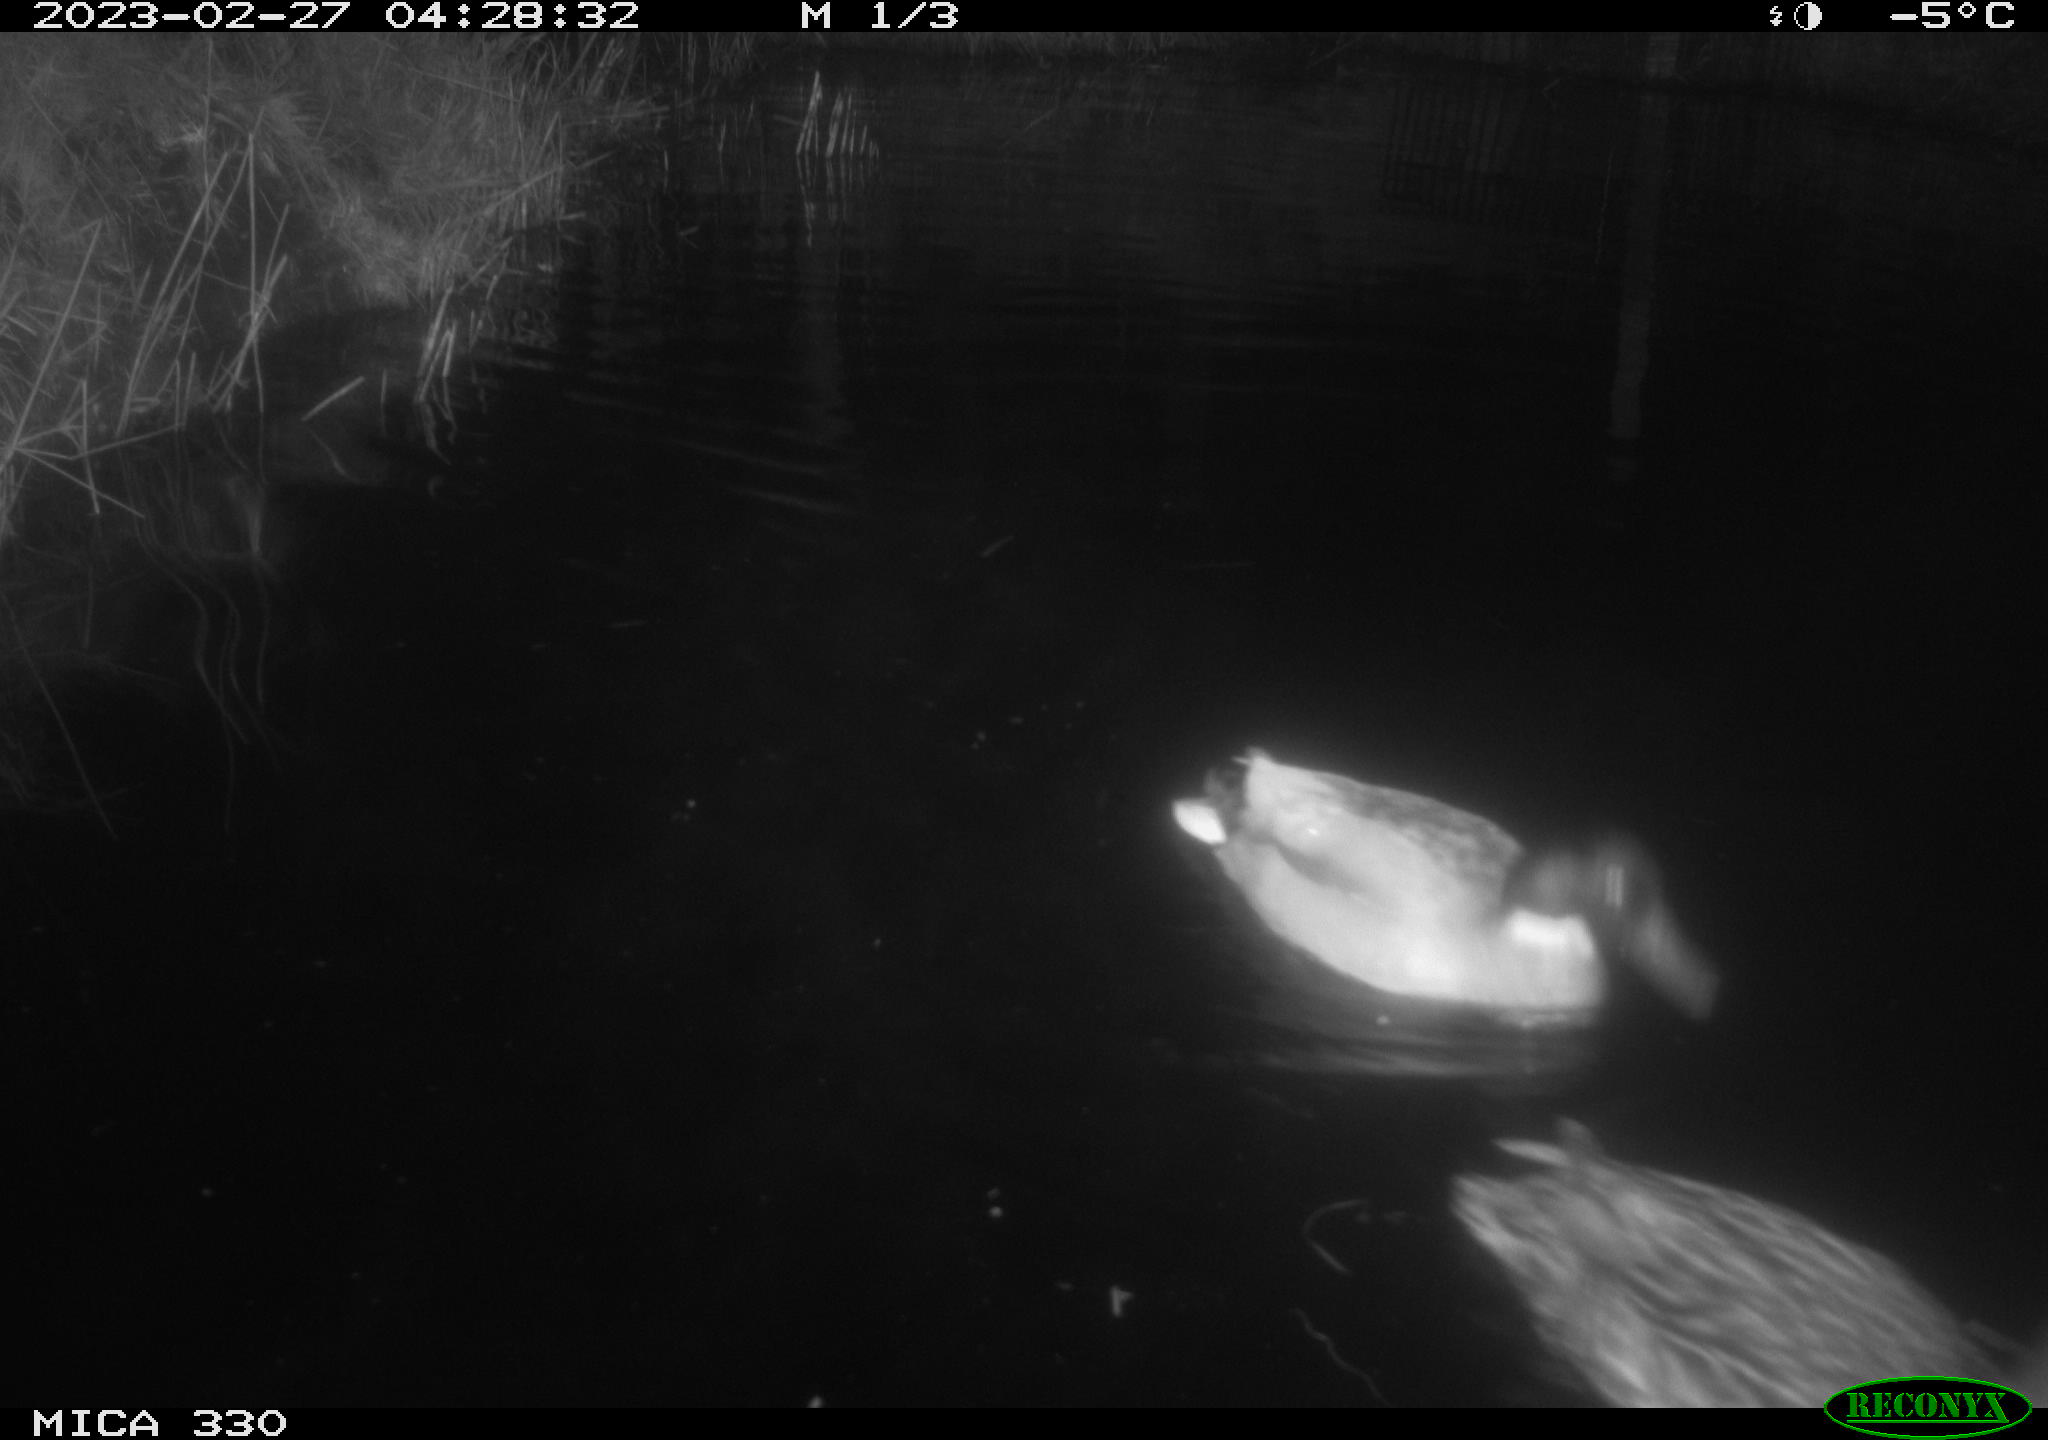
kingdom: Animalia
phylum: Chordata
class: Aves
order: Anseriformes
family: Anatidae
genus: Anas
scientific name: Anas
